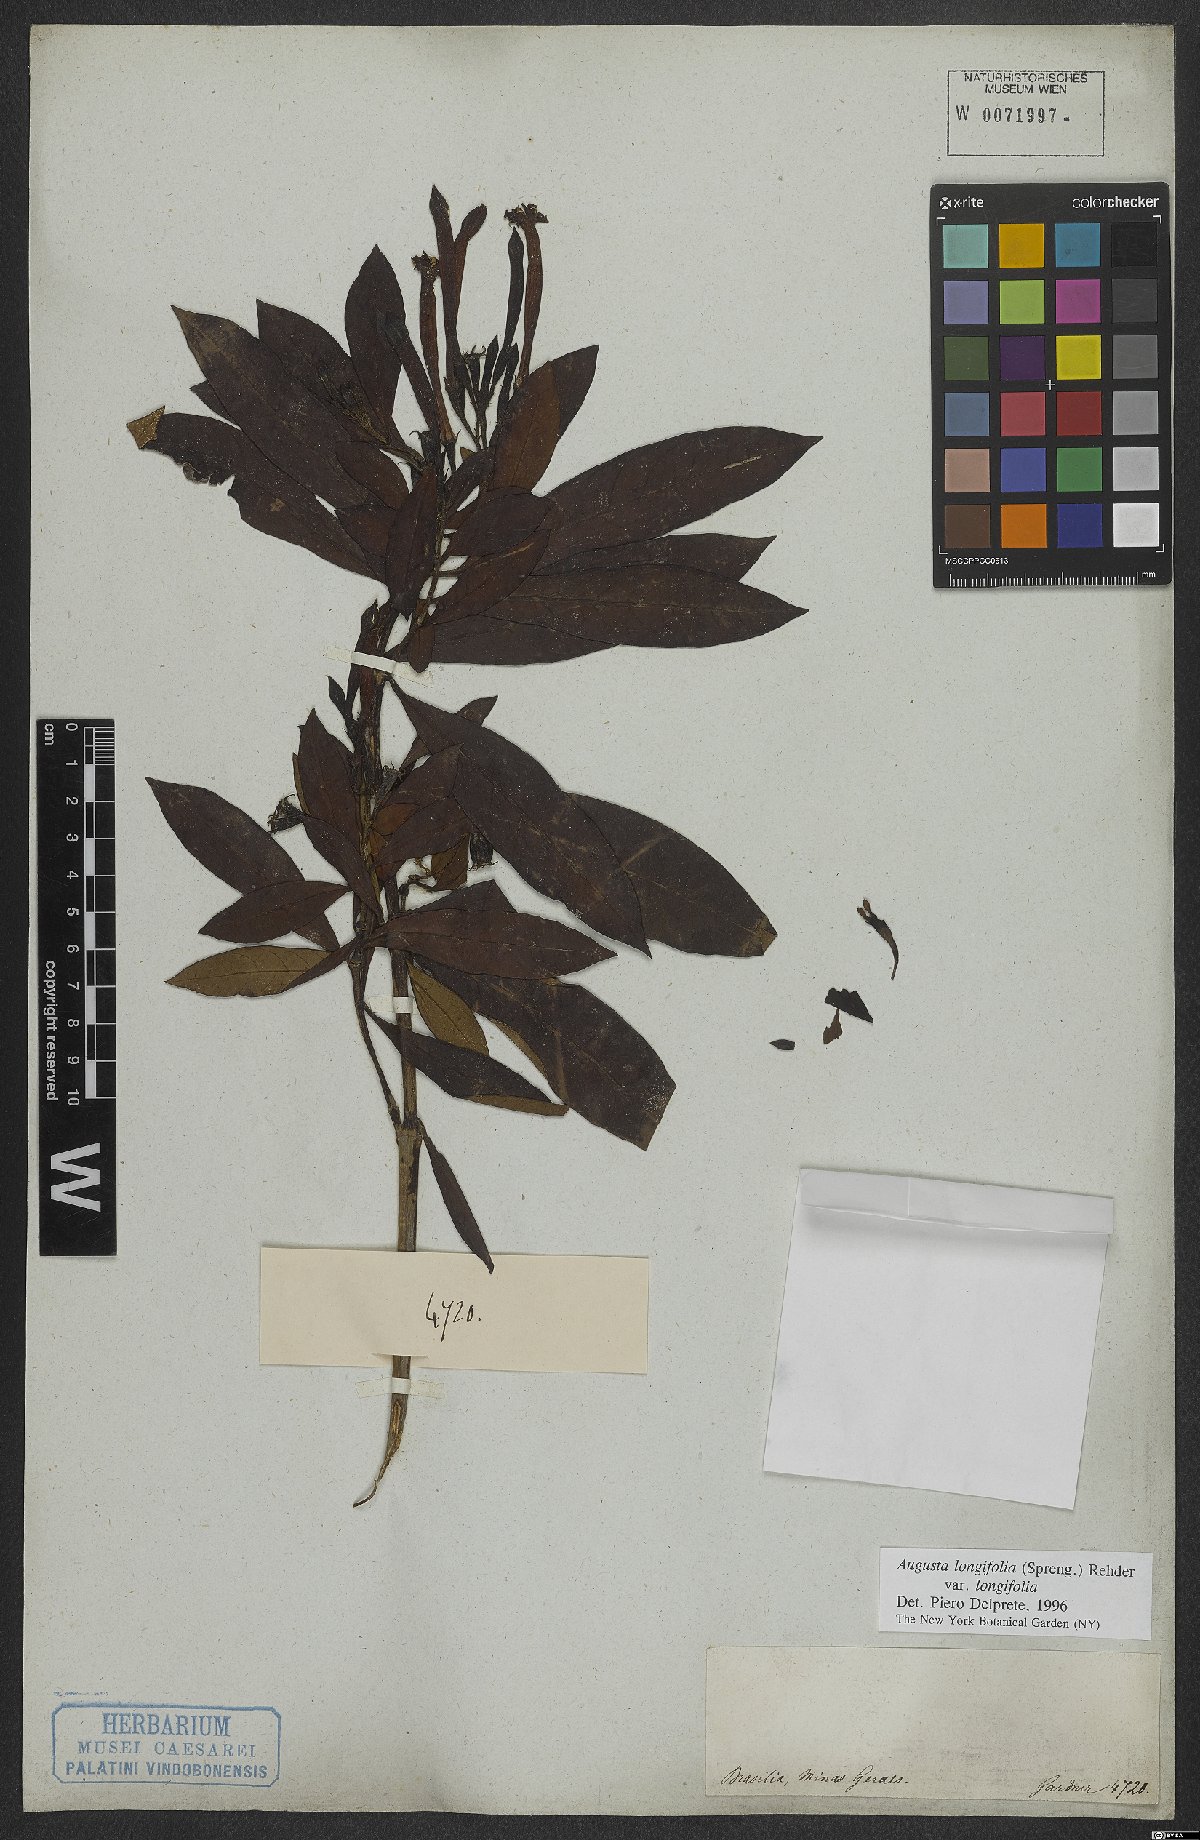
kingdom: Plantae
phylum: Tracheophyta
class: Magnoliopsida
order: Gentianales
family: Rubiaceae
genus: Augusta
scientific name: Augusta longifolia
